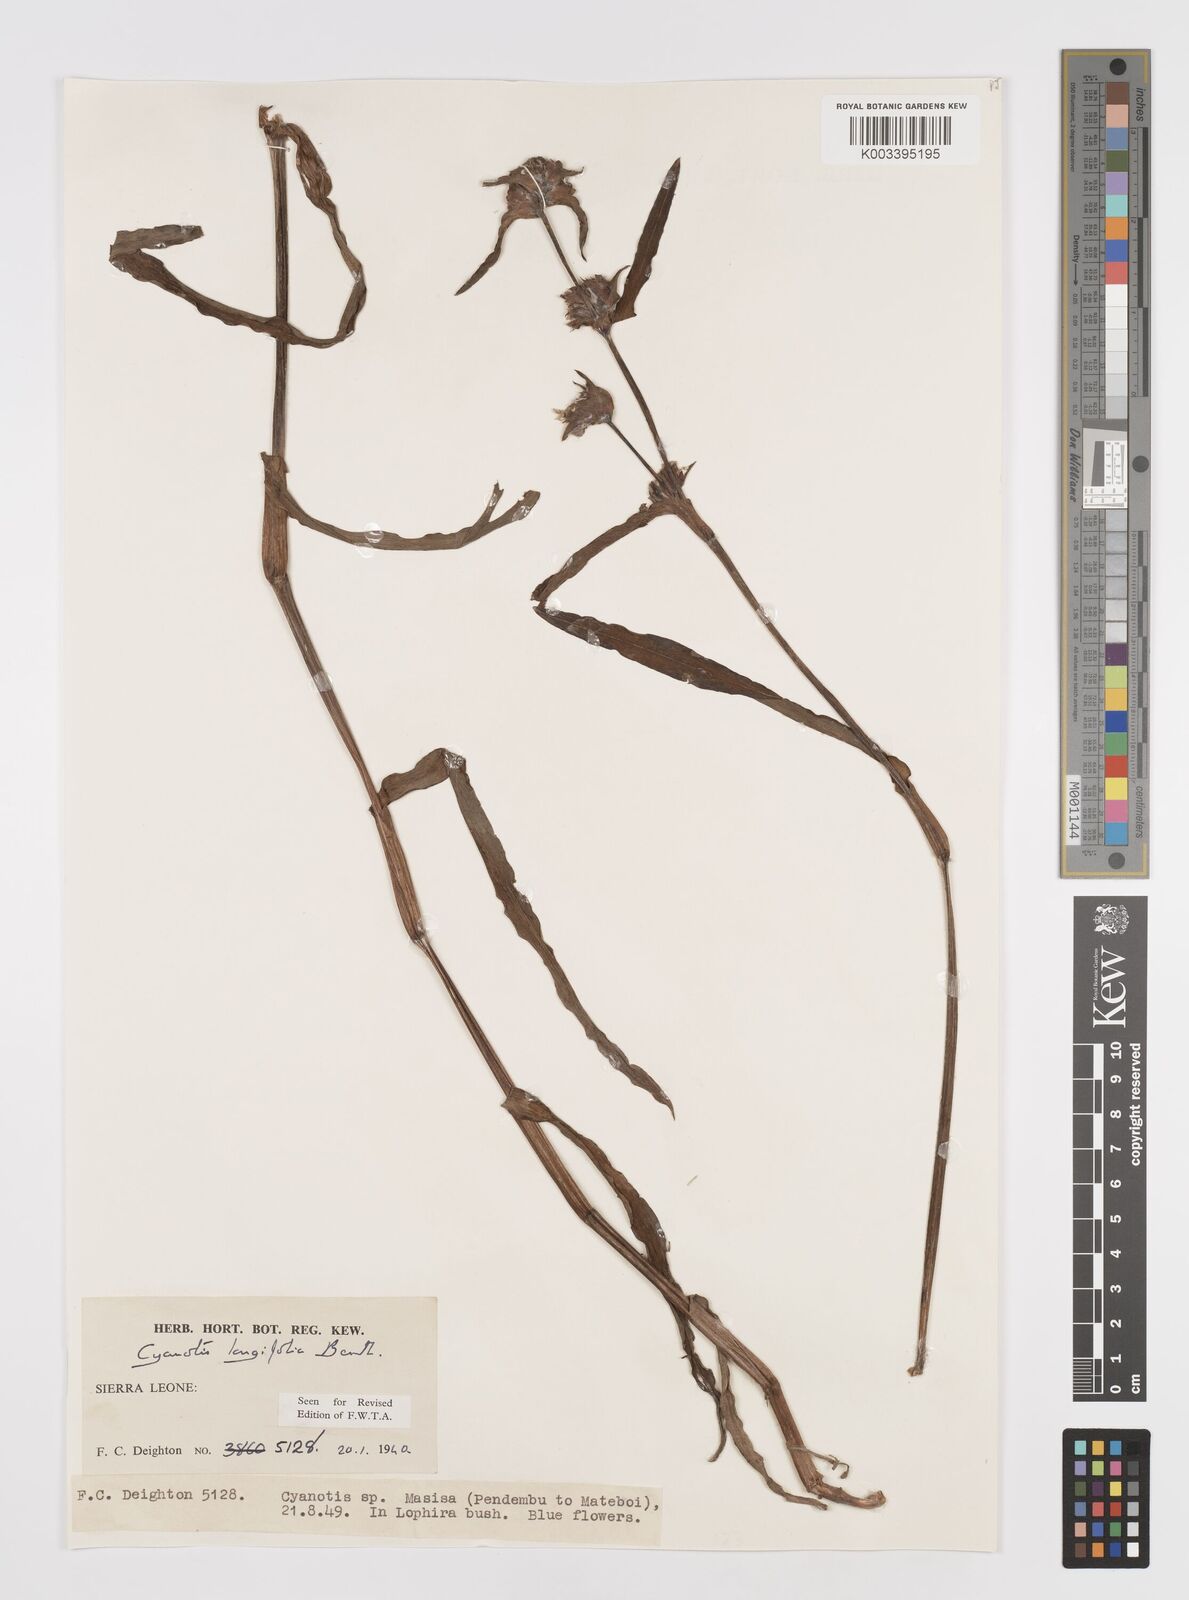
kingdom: Plantae
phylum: Tracheophyta
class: Liliopsida
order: Commelinales
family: Commelinaceae
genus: Cyanotis
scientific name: Cyanotis
